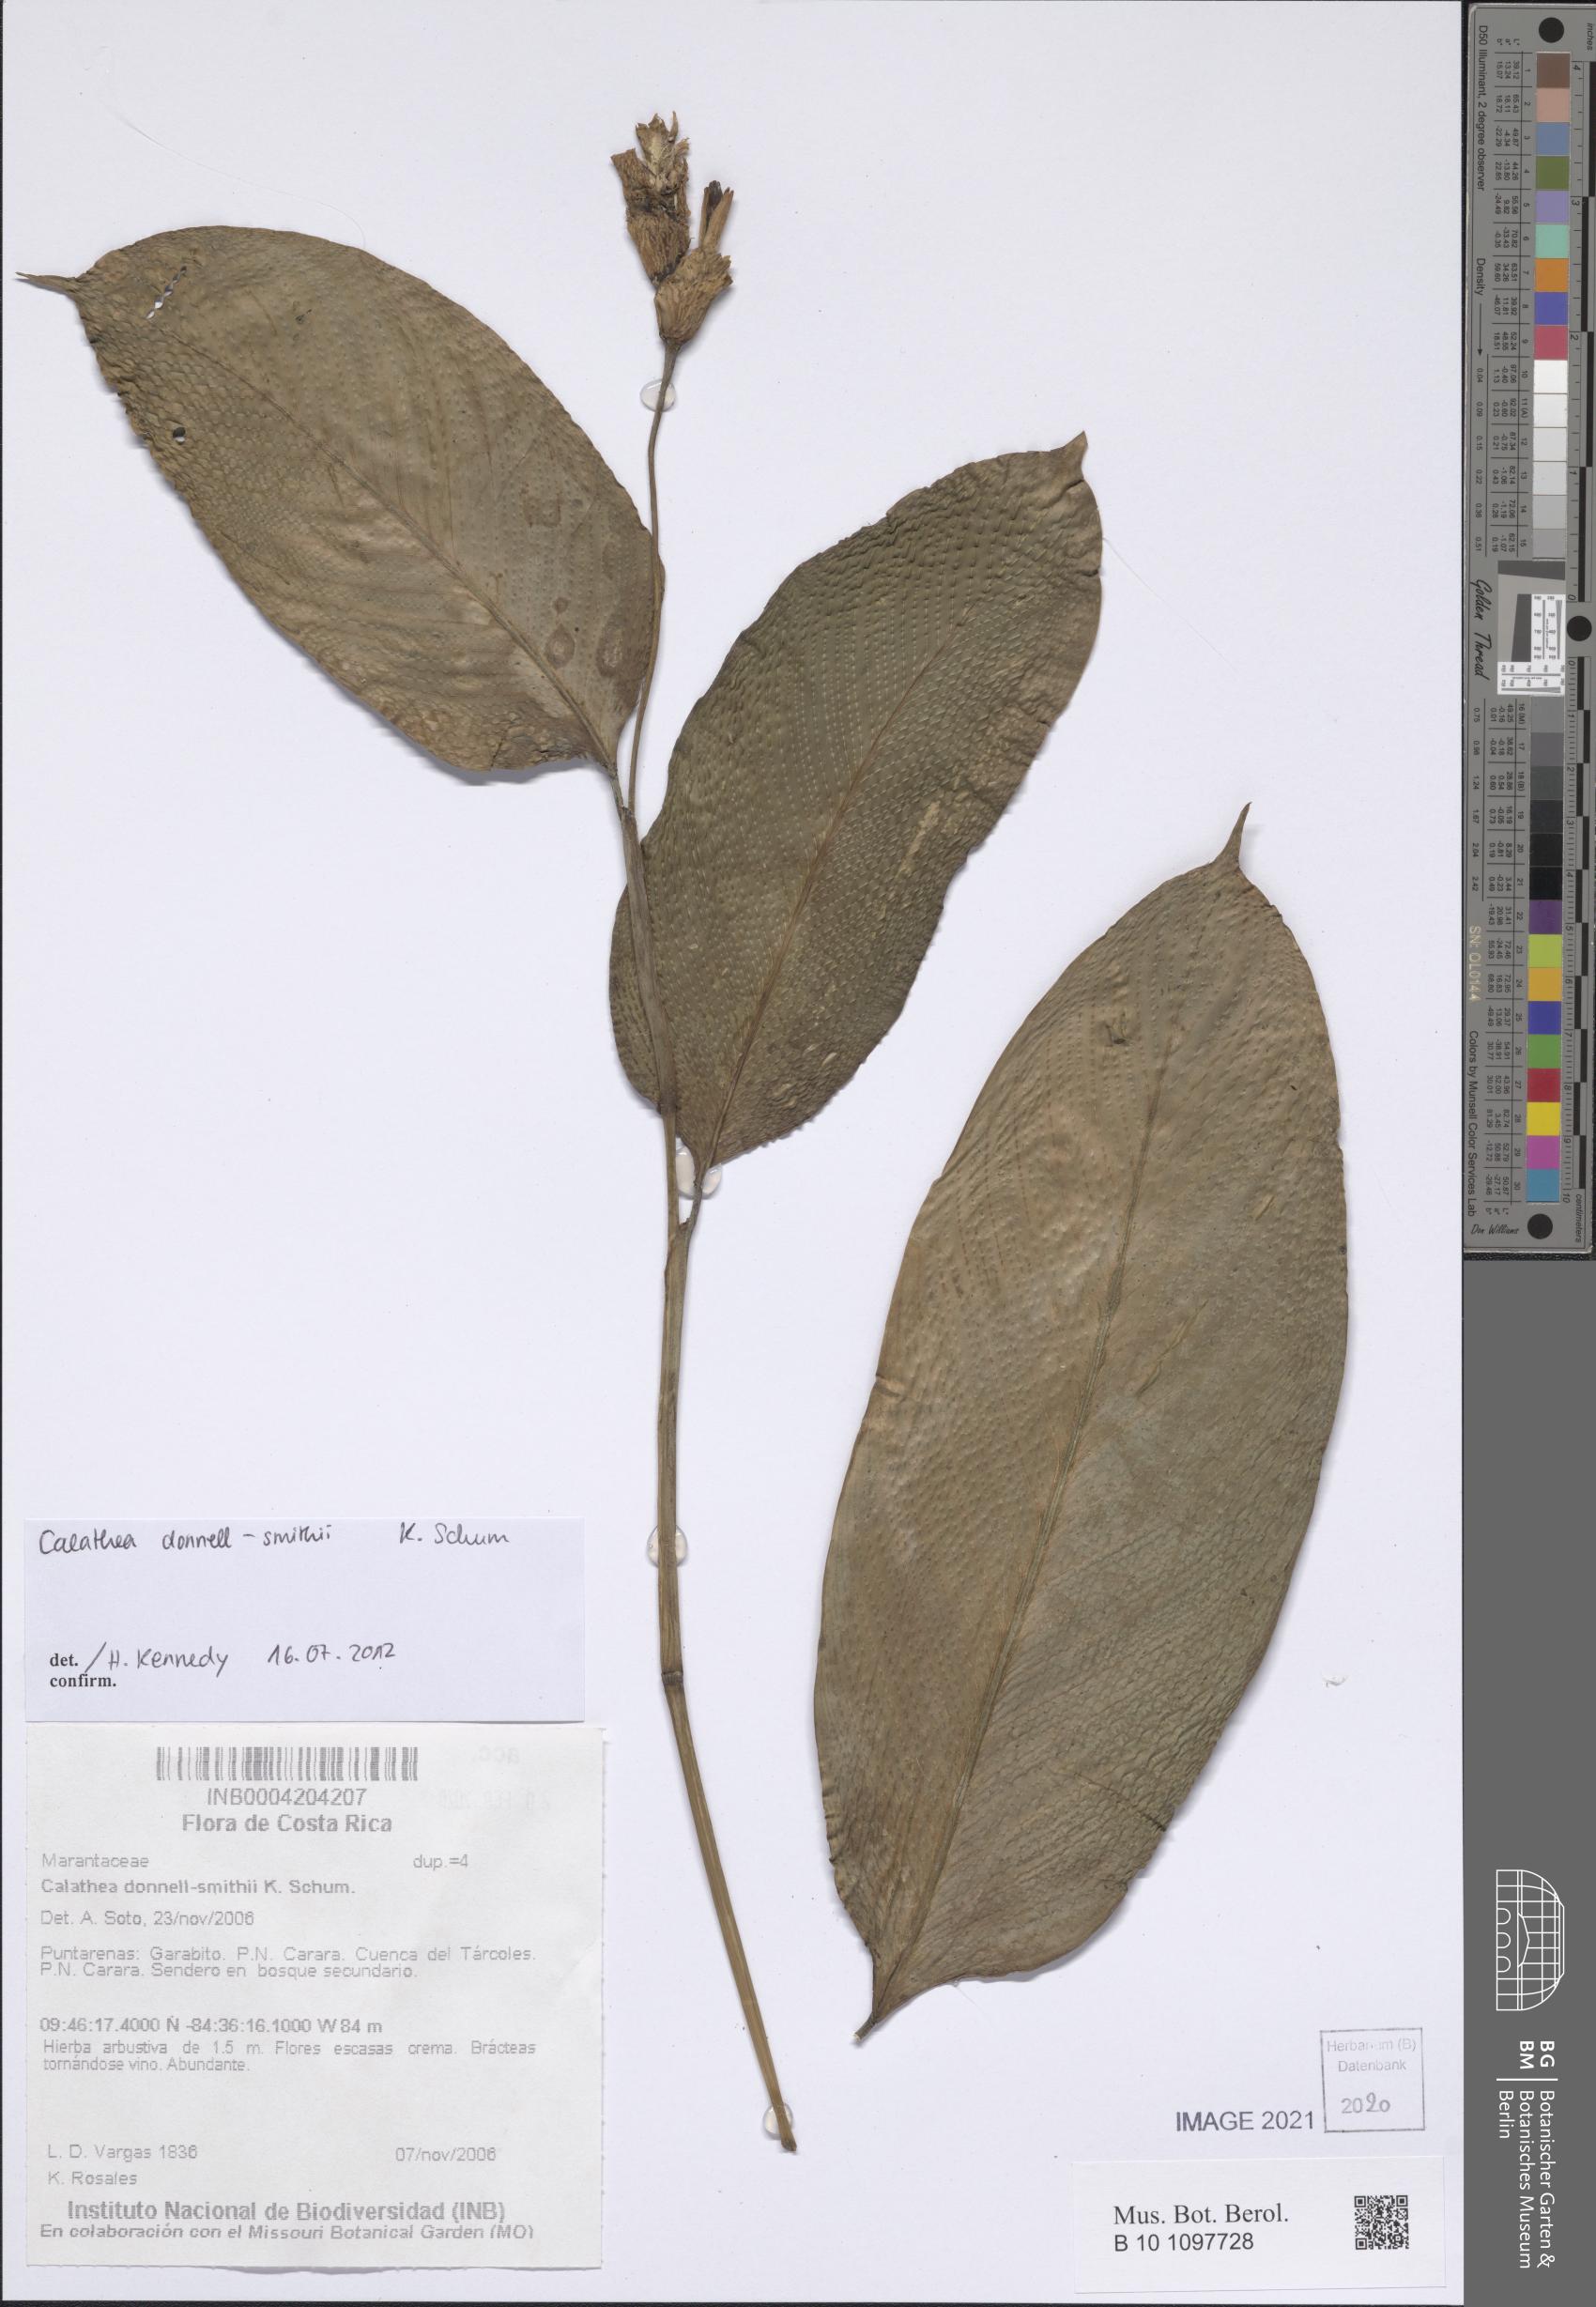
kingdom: Plantae
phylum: Tracheophyta
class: Liliopsida
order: Zingiberales
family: Marantaceae
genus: Goeppertia
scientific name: Goeppertia donnell-smithii
